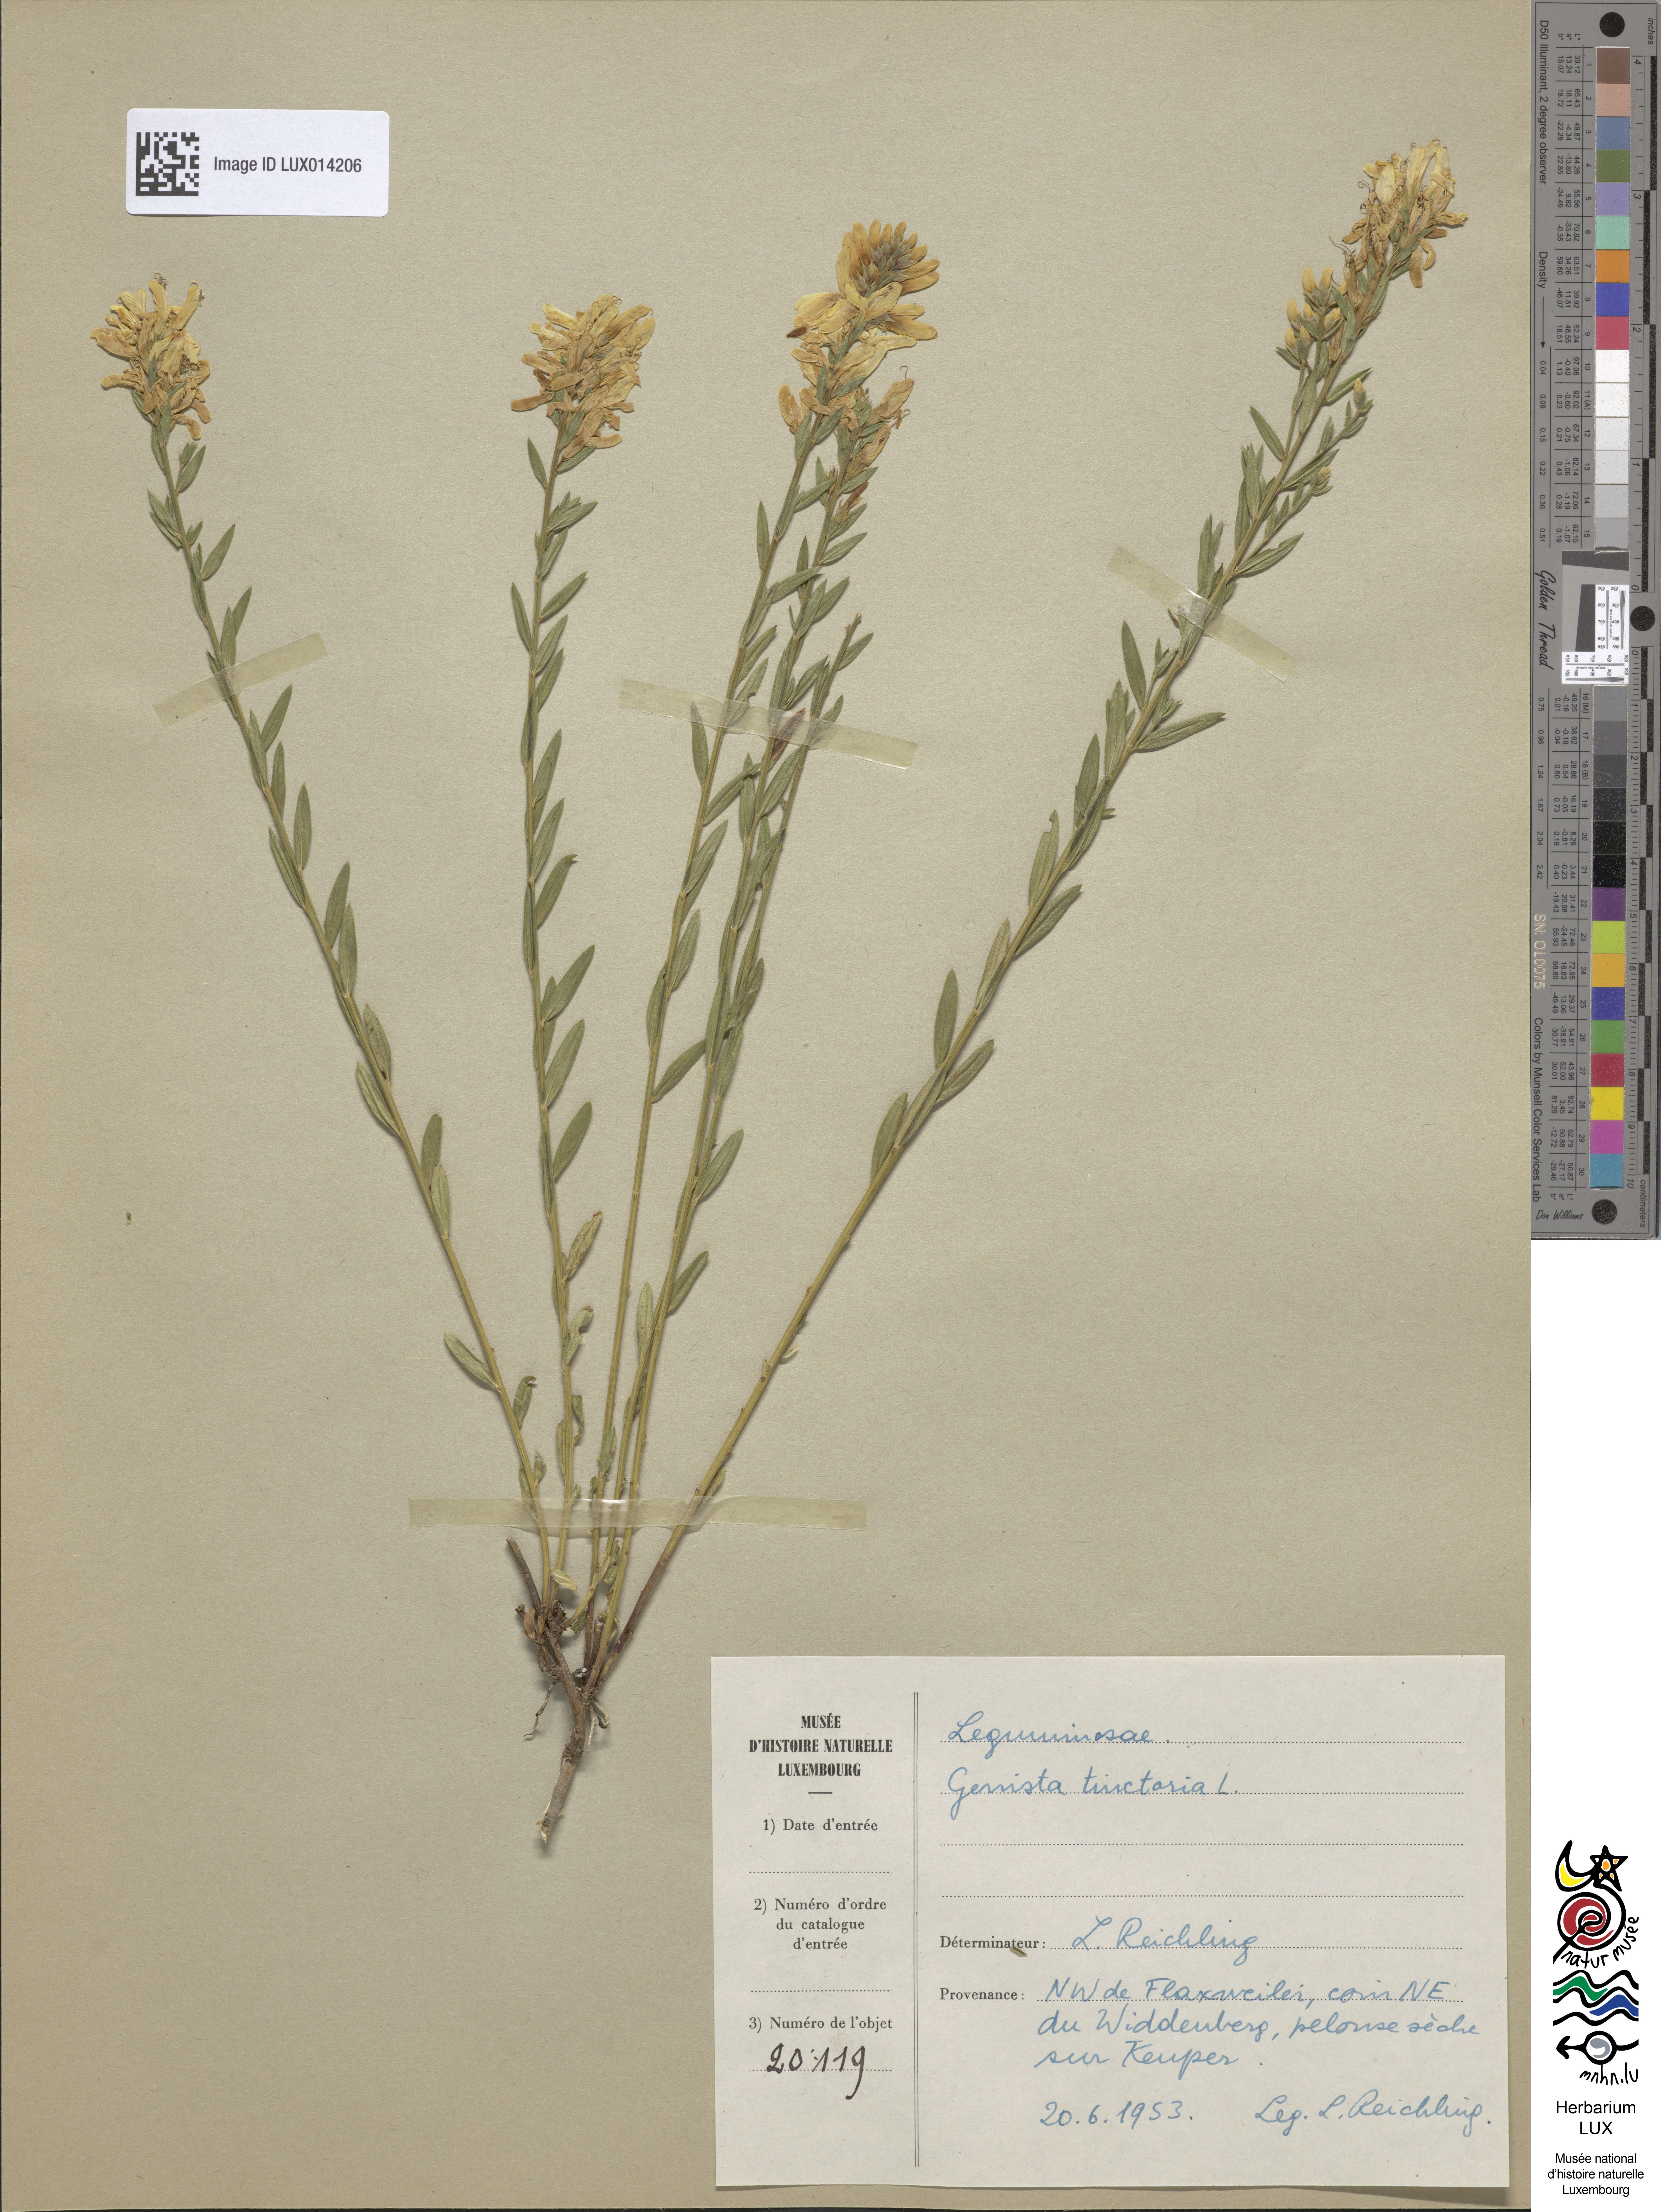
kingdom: Plantae
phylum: Tracheophyta
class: Magnoliopsida
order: Fabales
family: Fabaceae
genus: Genista
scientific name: Genista tinctoria
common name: Dyer's greenweed
